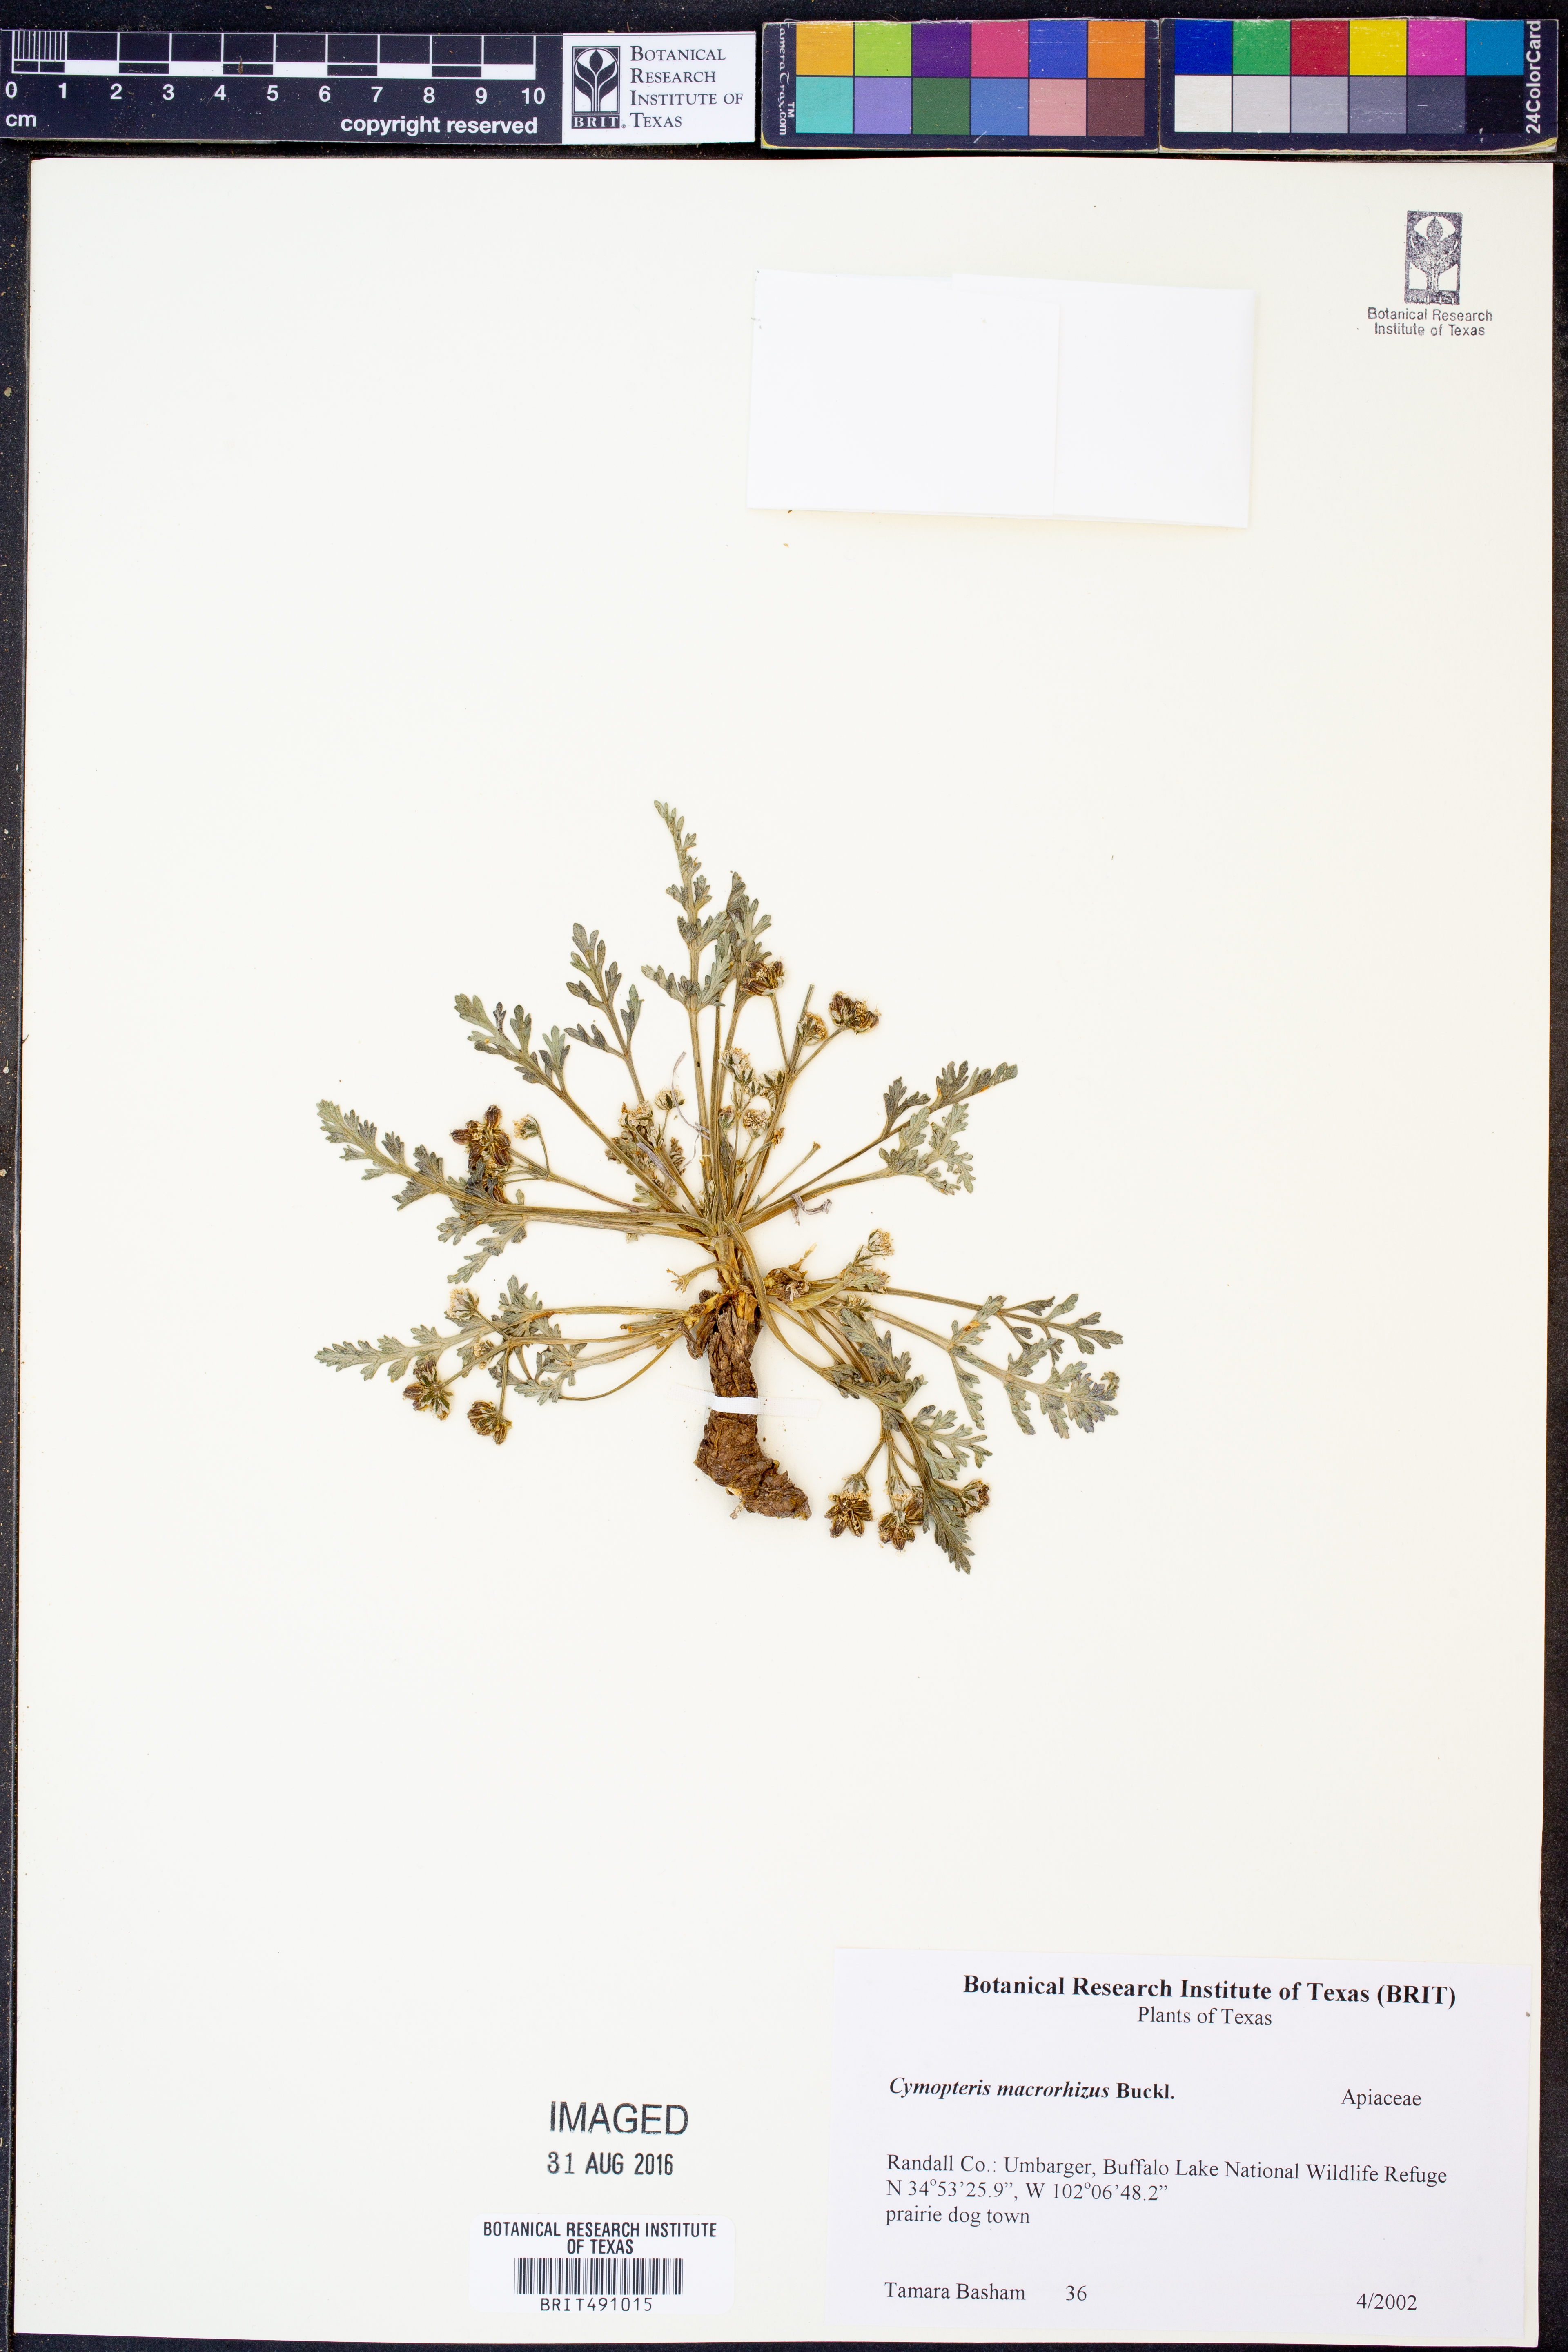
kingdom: Plantae
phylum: Tracheophyta
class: Magnoliopsida
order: Apiales
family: Apiaceae
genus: Vesper
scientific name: Vesper macrorhizus
